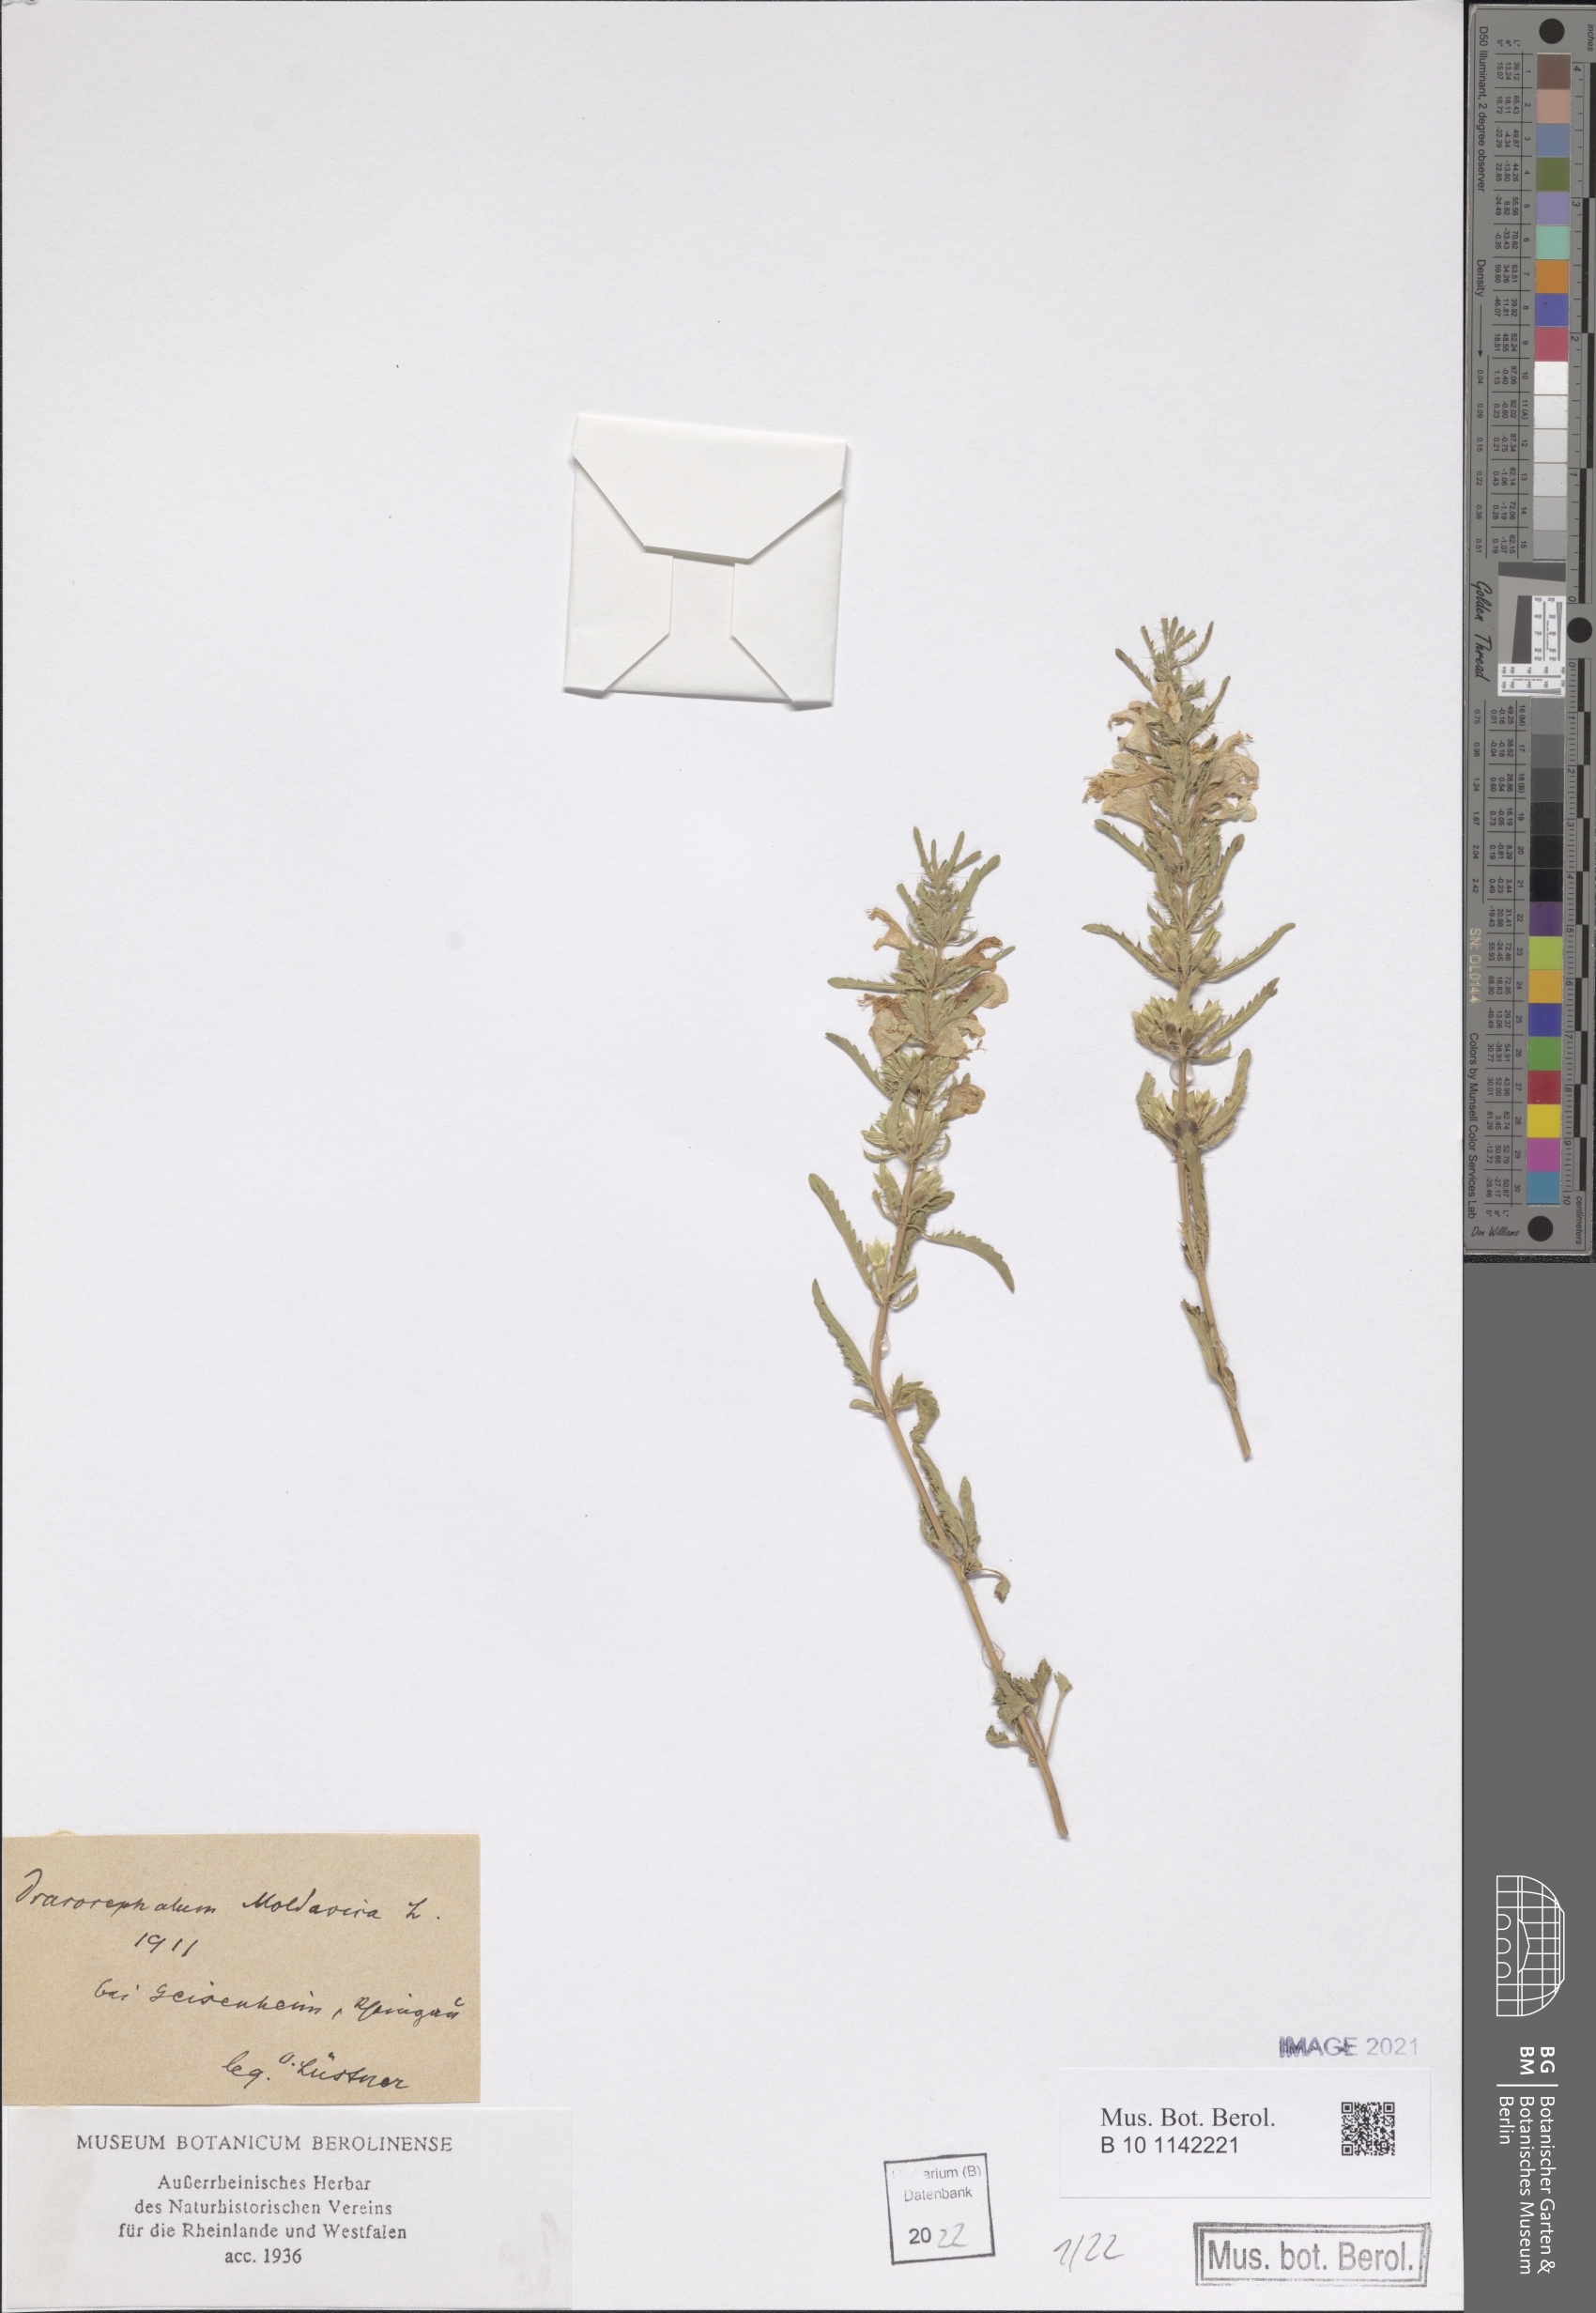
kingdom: Plantae
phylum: Tracheophyta
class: Magnoliopsida
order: Lamiales
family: Lamiaceae
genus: Dracocephalum
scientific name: Dracocephalum moldavica
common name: Moldavian dragonhead
